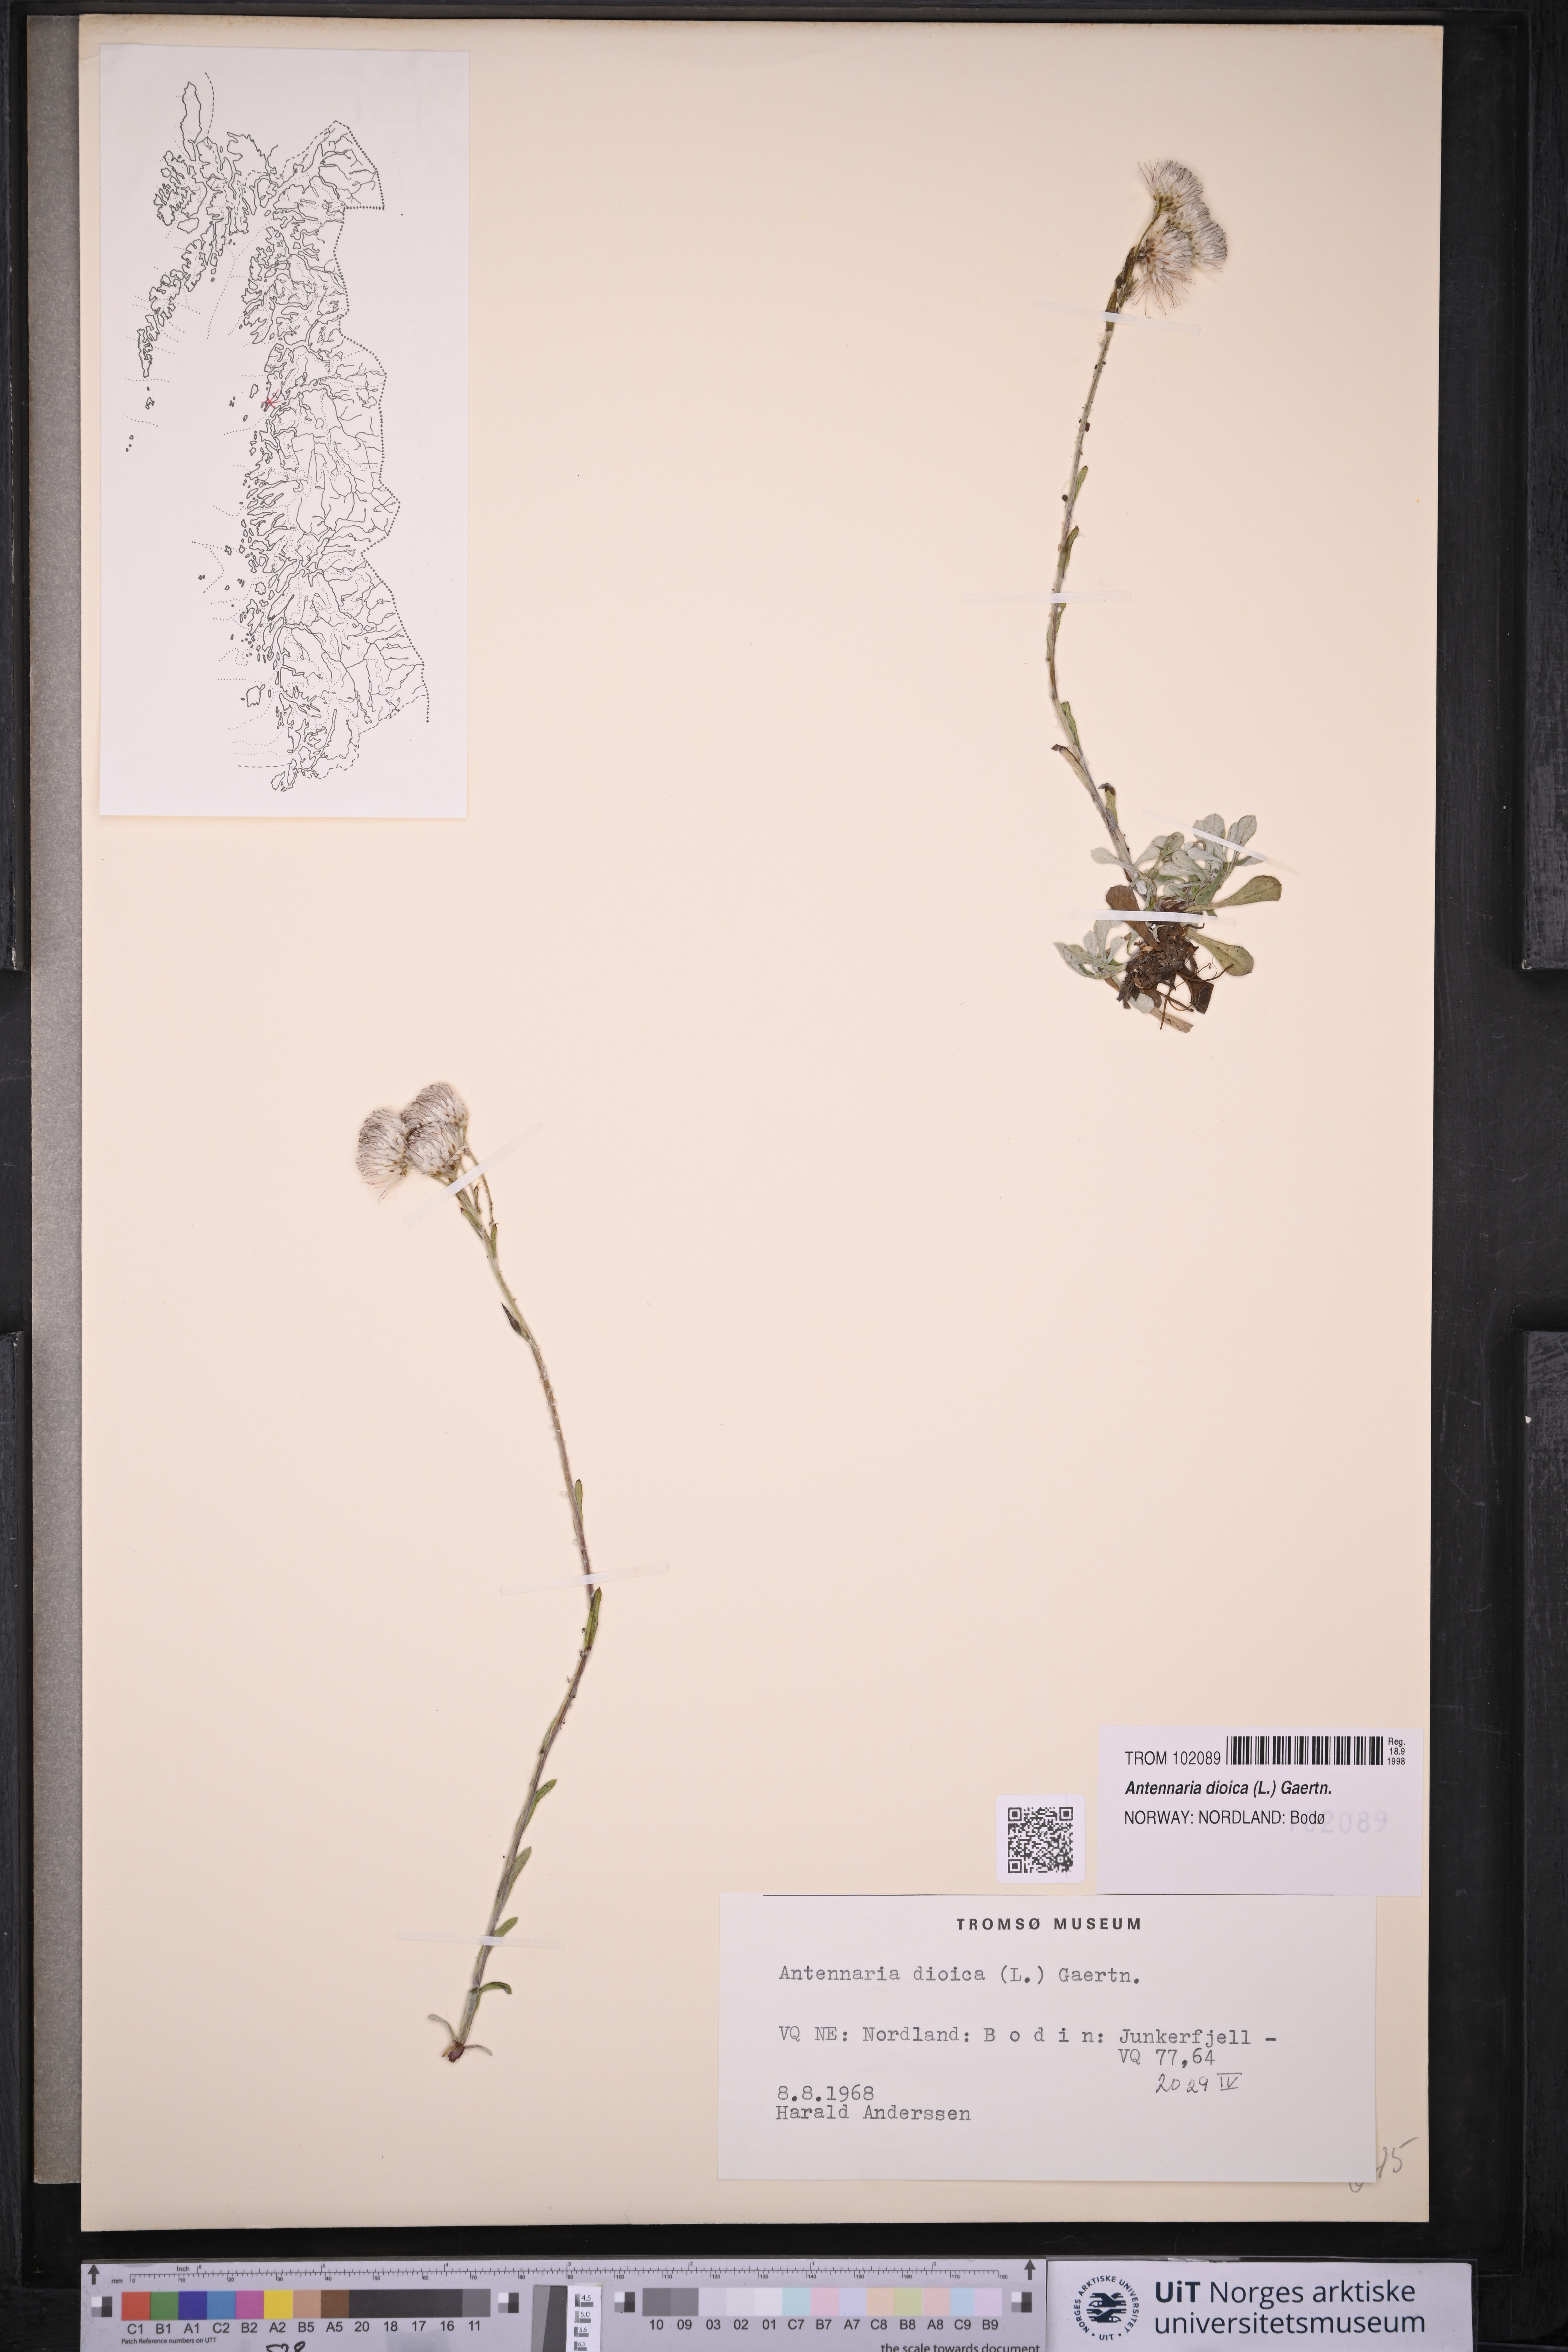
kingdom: Plantae
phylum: Tracheophyta
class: Magnoliopsida
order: Asterales
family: Asteraceae
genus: Antennaria
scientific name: Antennaria dioica
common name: Mountain everlasting
